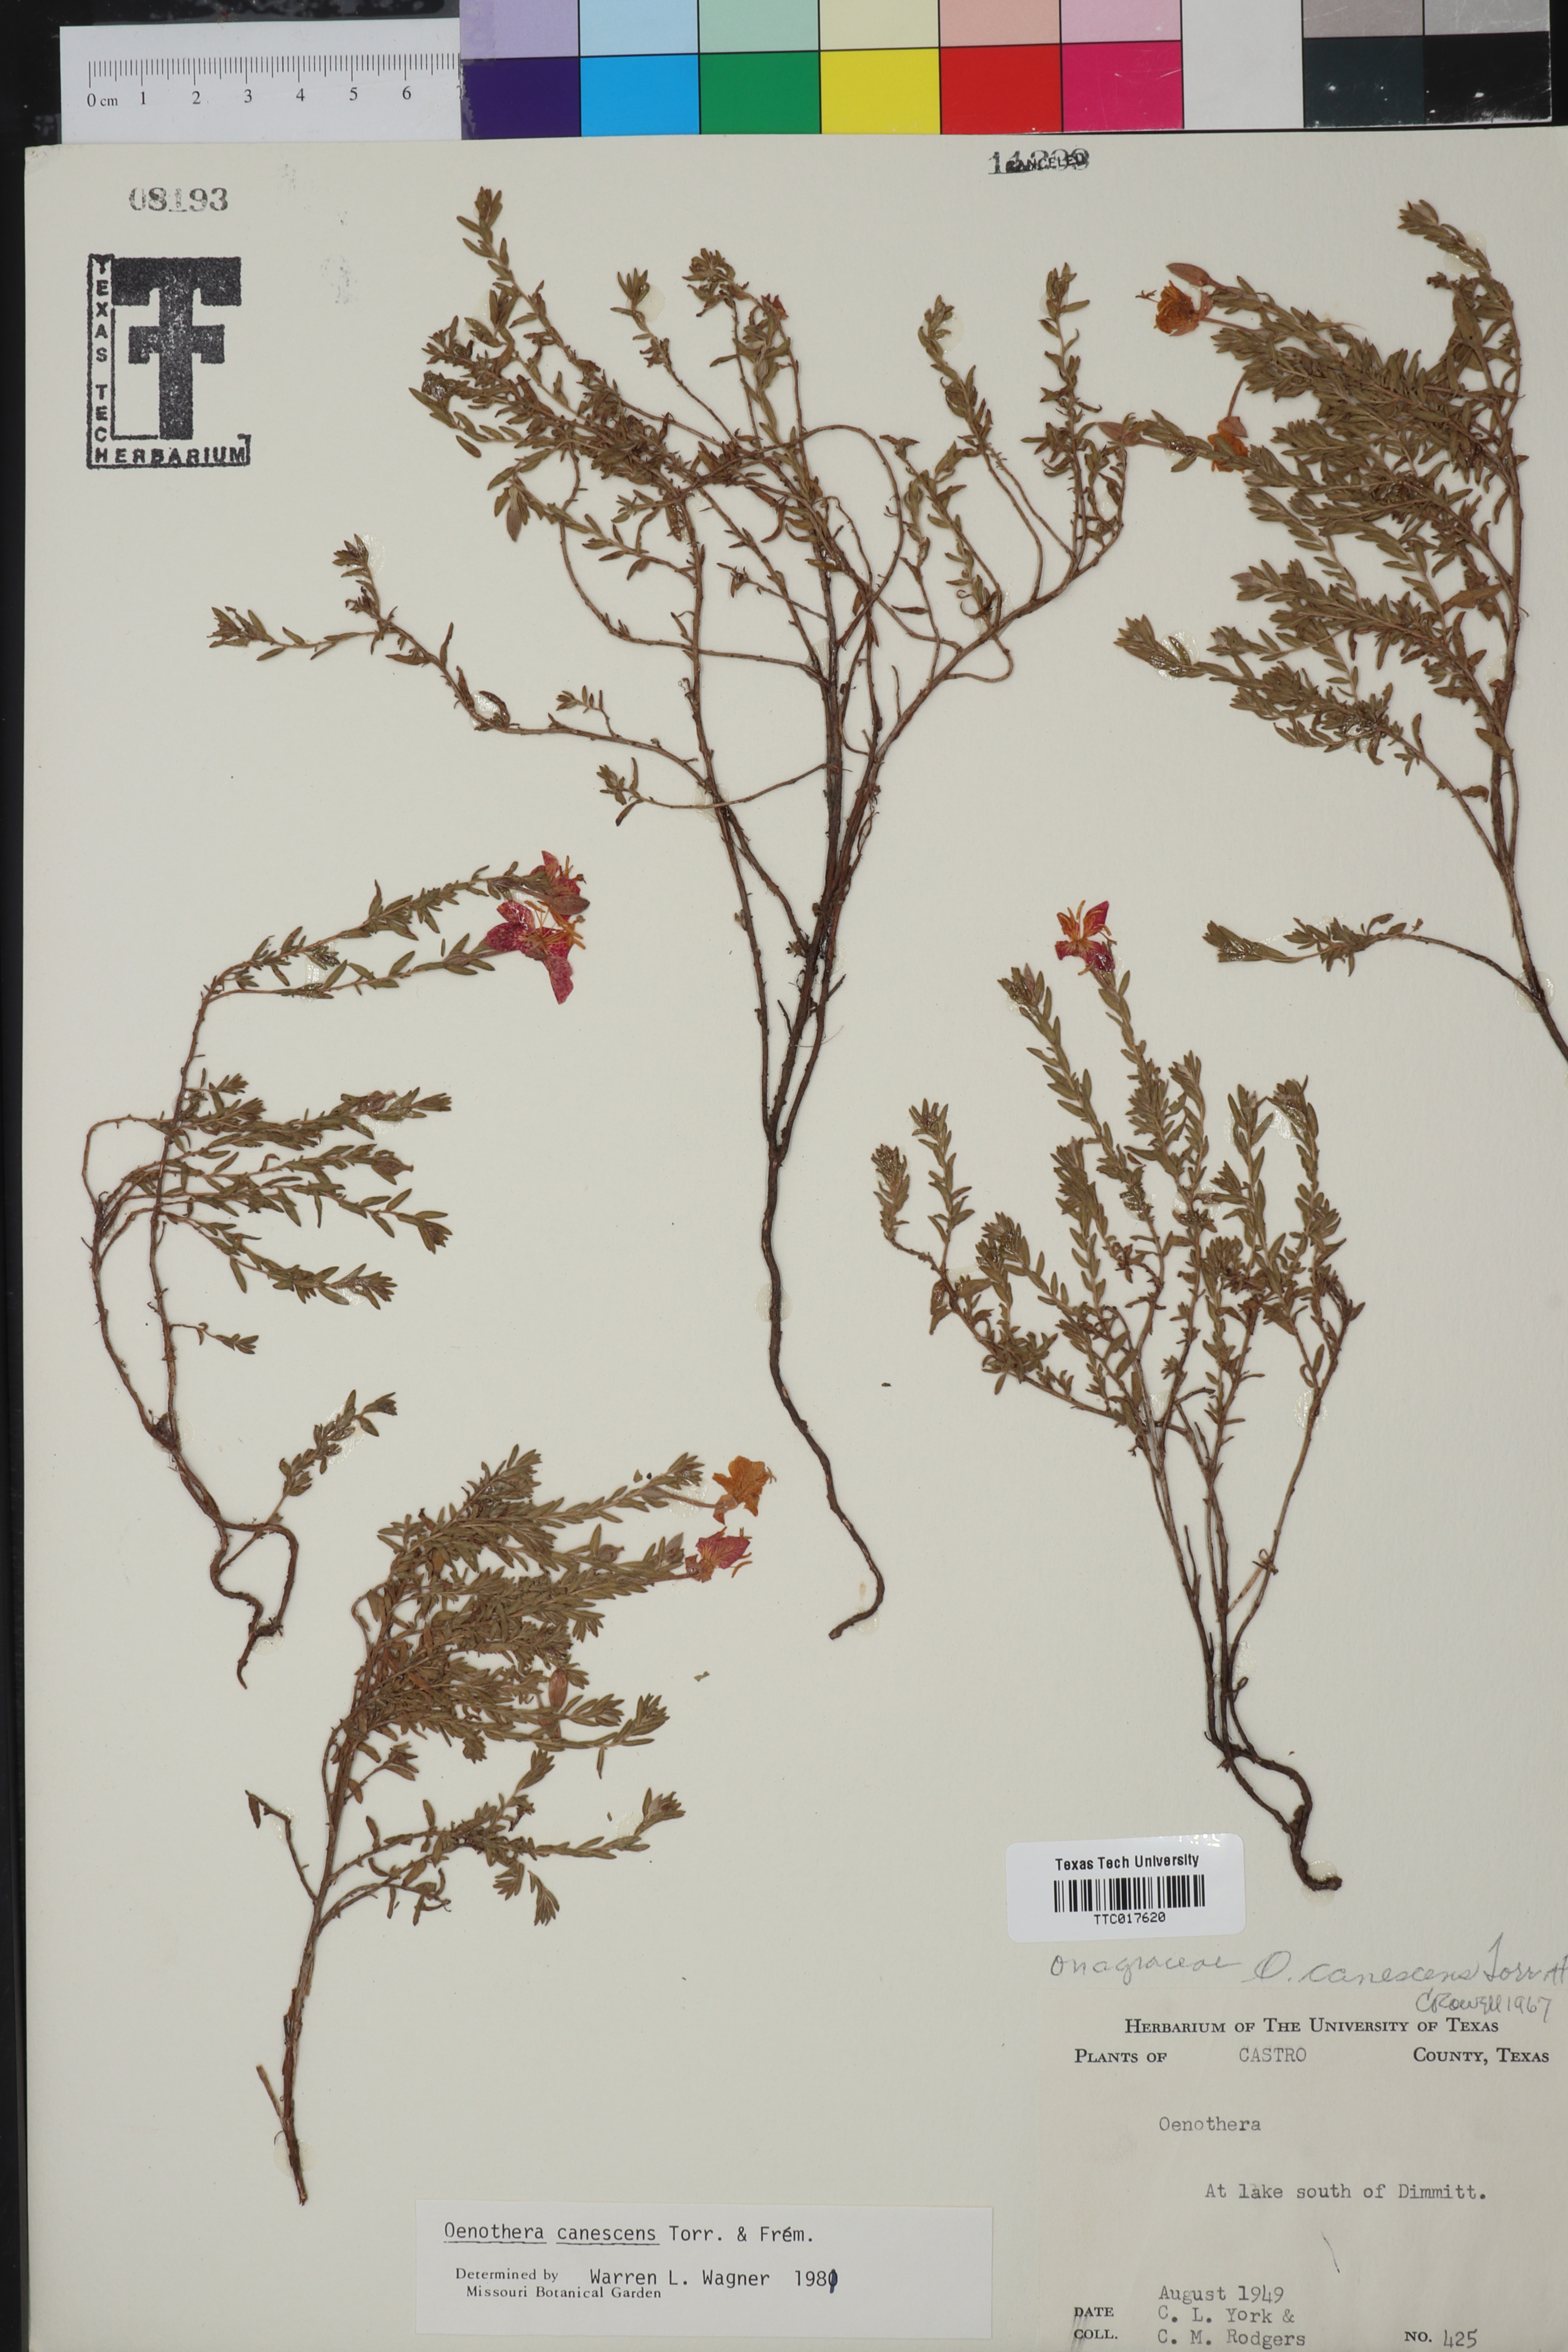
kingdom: Plantae
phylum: Tracheophyta
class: Magnoliopsida
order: Myrtales
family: Onagraceae
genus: Oenothera
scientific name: Oenothera canescens
